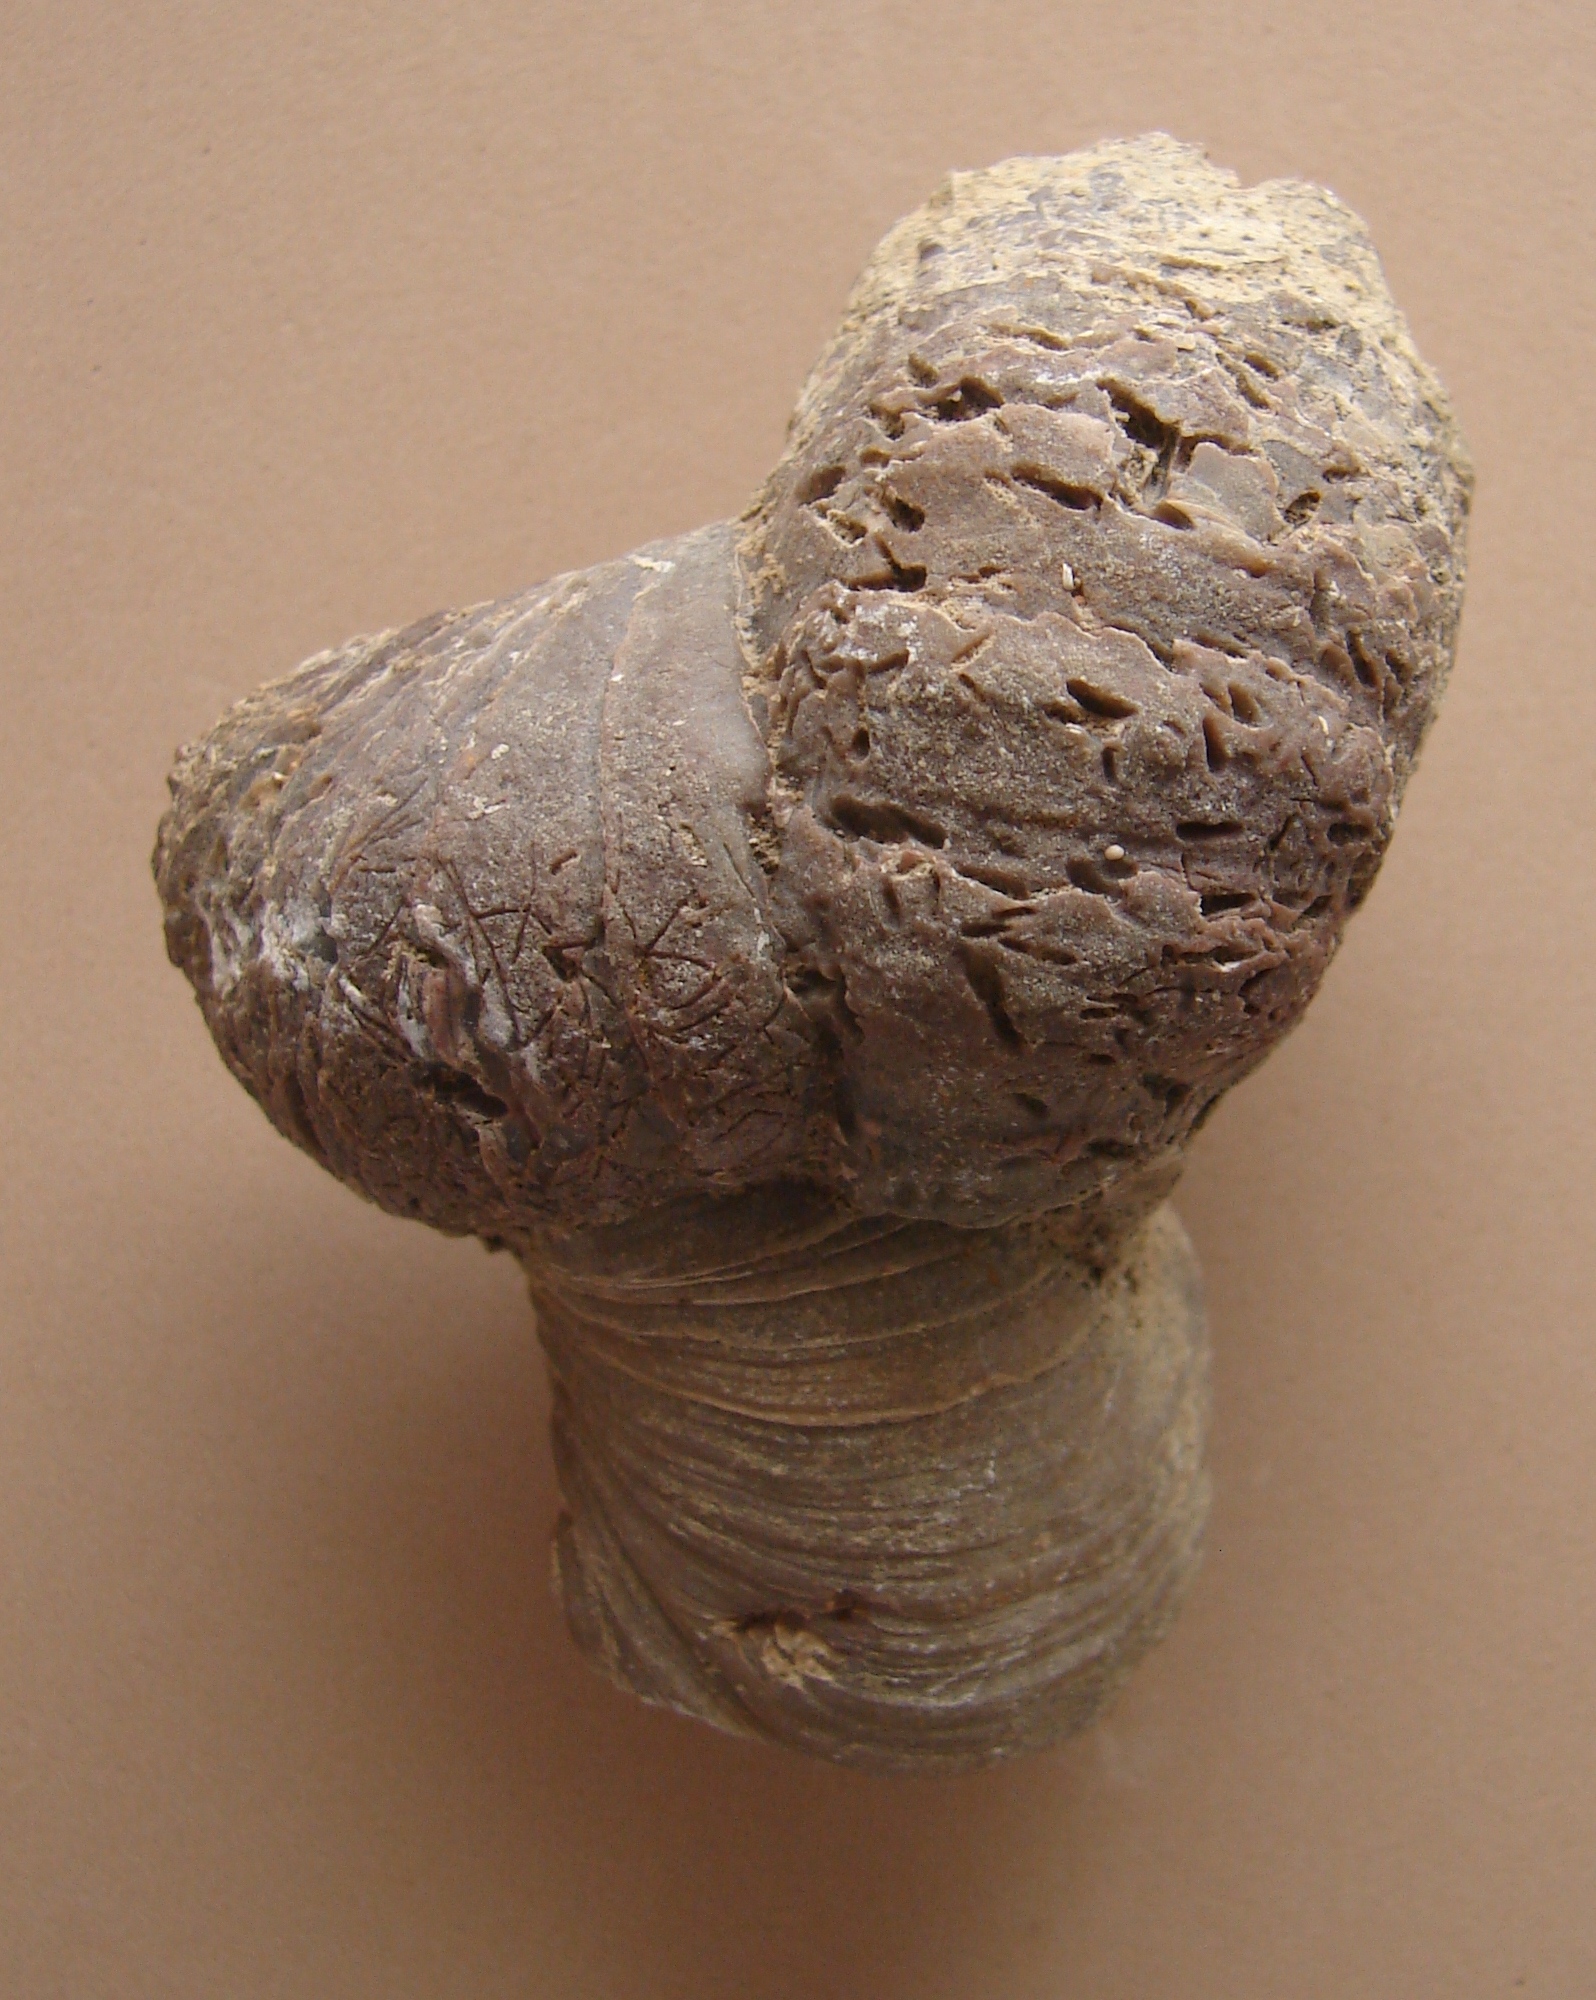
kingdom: Animalia
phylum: Mollusca
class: Bivalvia
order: Ostreida
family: Gryphaeidae
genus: Gryphaea
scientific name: Gryphaea arcuata
